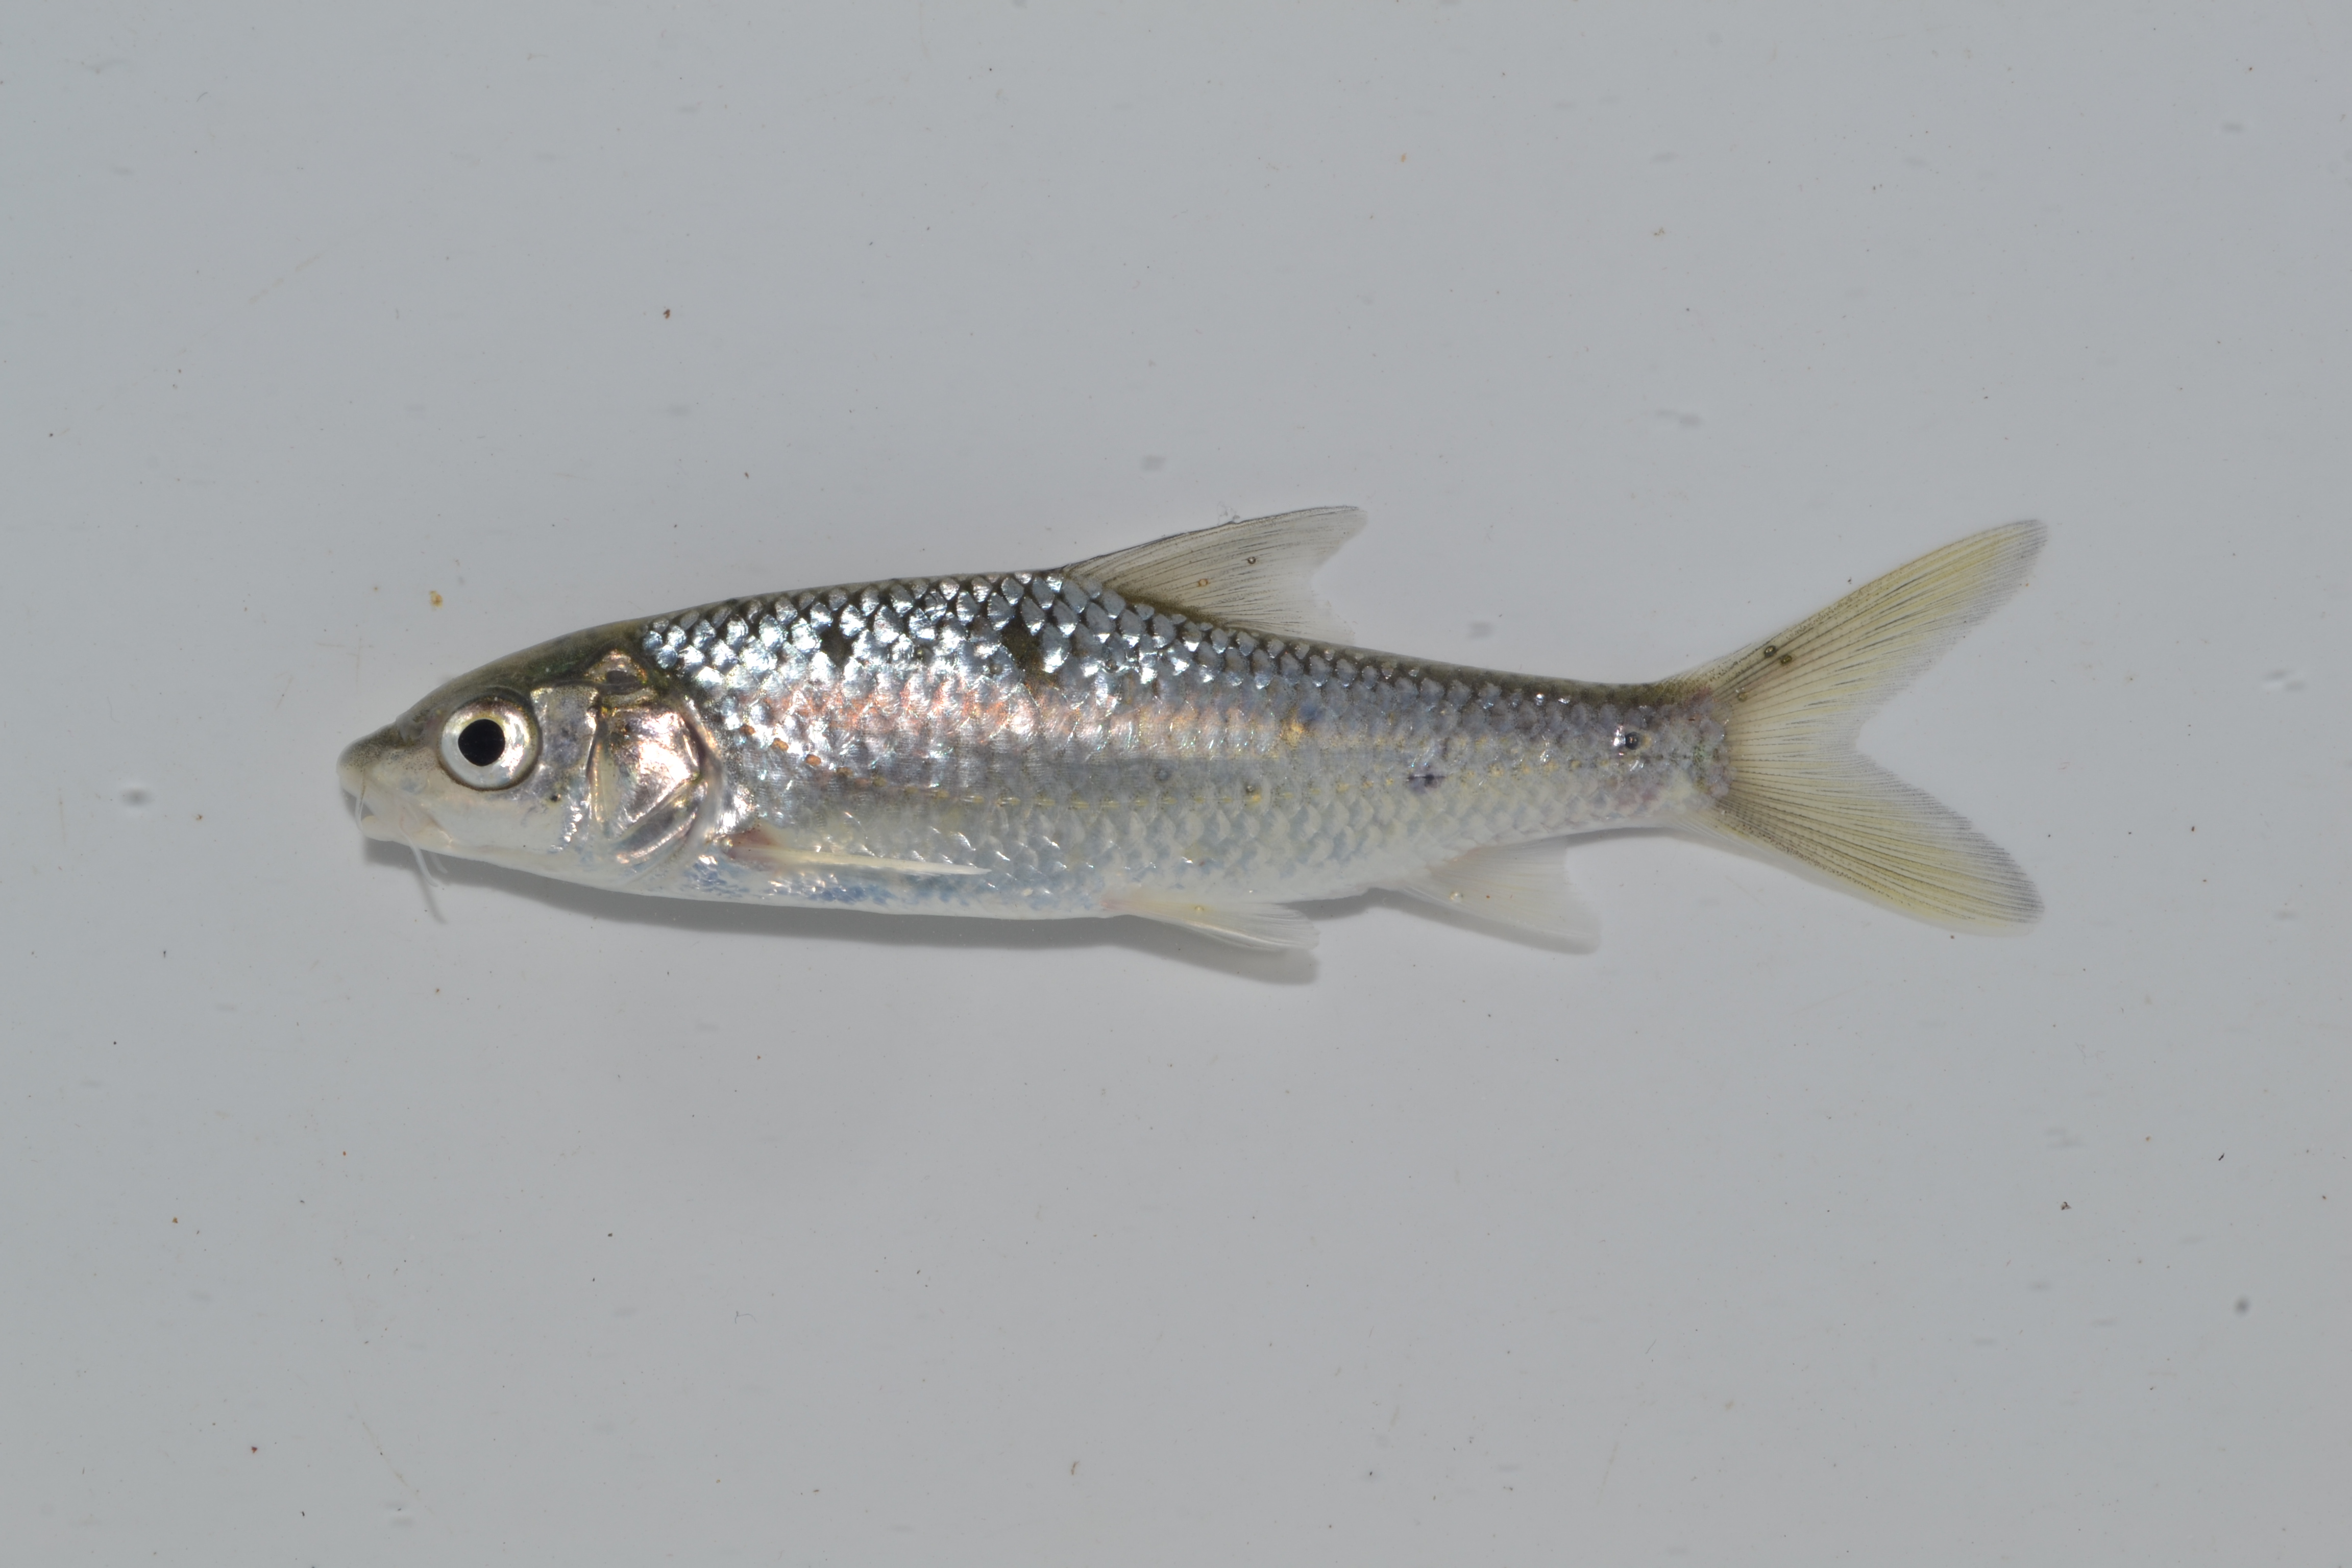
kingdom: Animalia
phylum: Chordata
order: Cypriniformes
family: Cyprinidae
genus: Labeobarbus
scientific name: Labeobarbus natalensis
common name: Scaly
